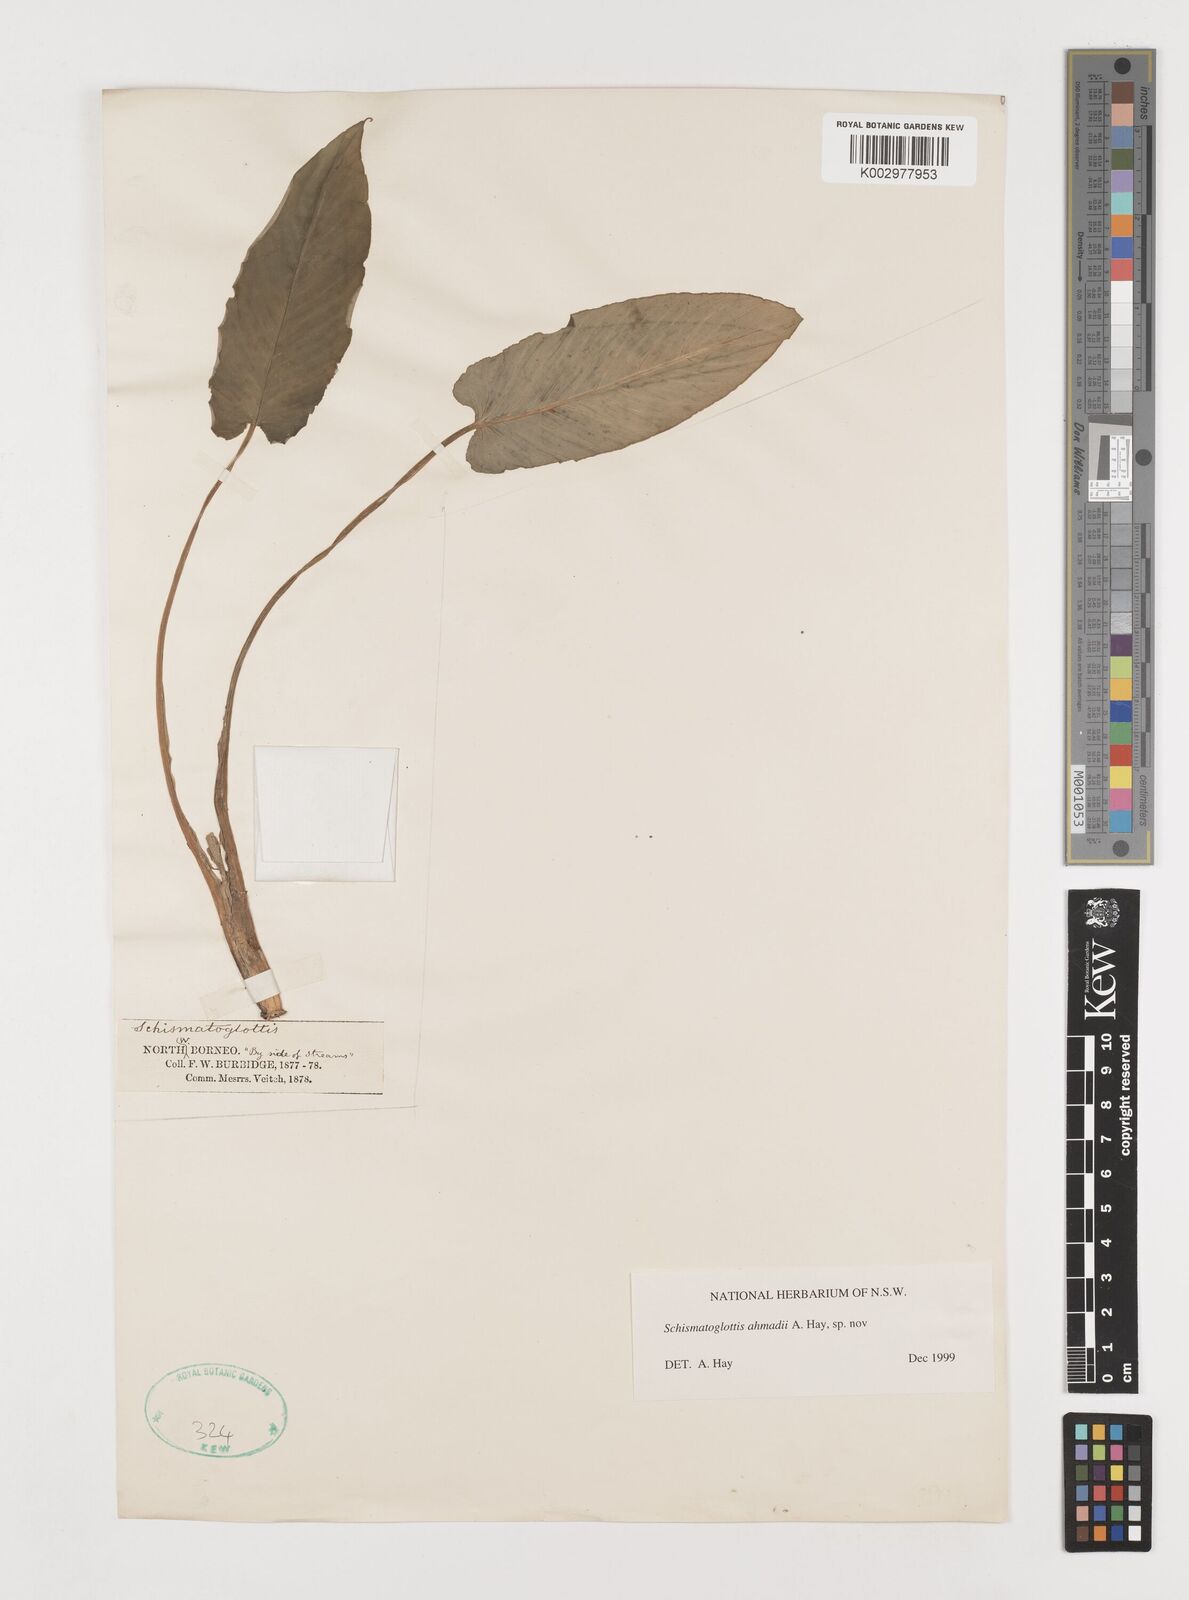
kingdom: Plantae
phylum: Tracheophyta
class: Liliopsida
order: Alismatales
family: Araceae
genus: Schismatoglottis
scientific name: Schismatoglottis ahmadii
